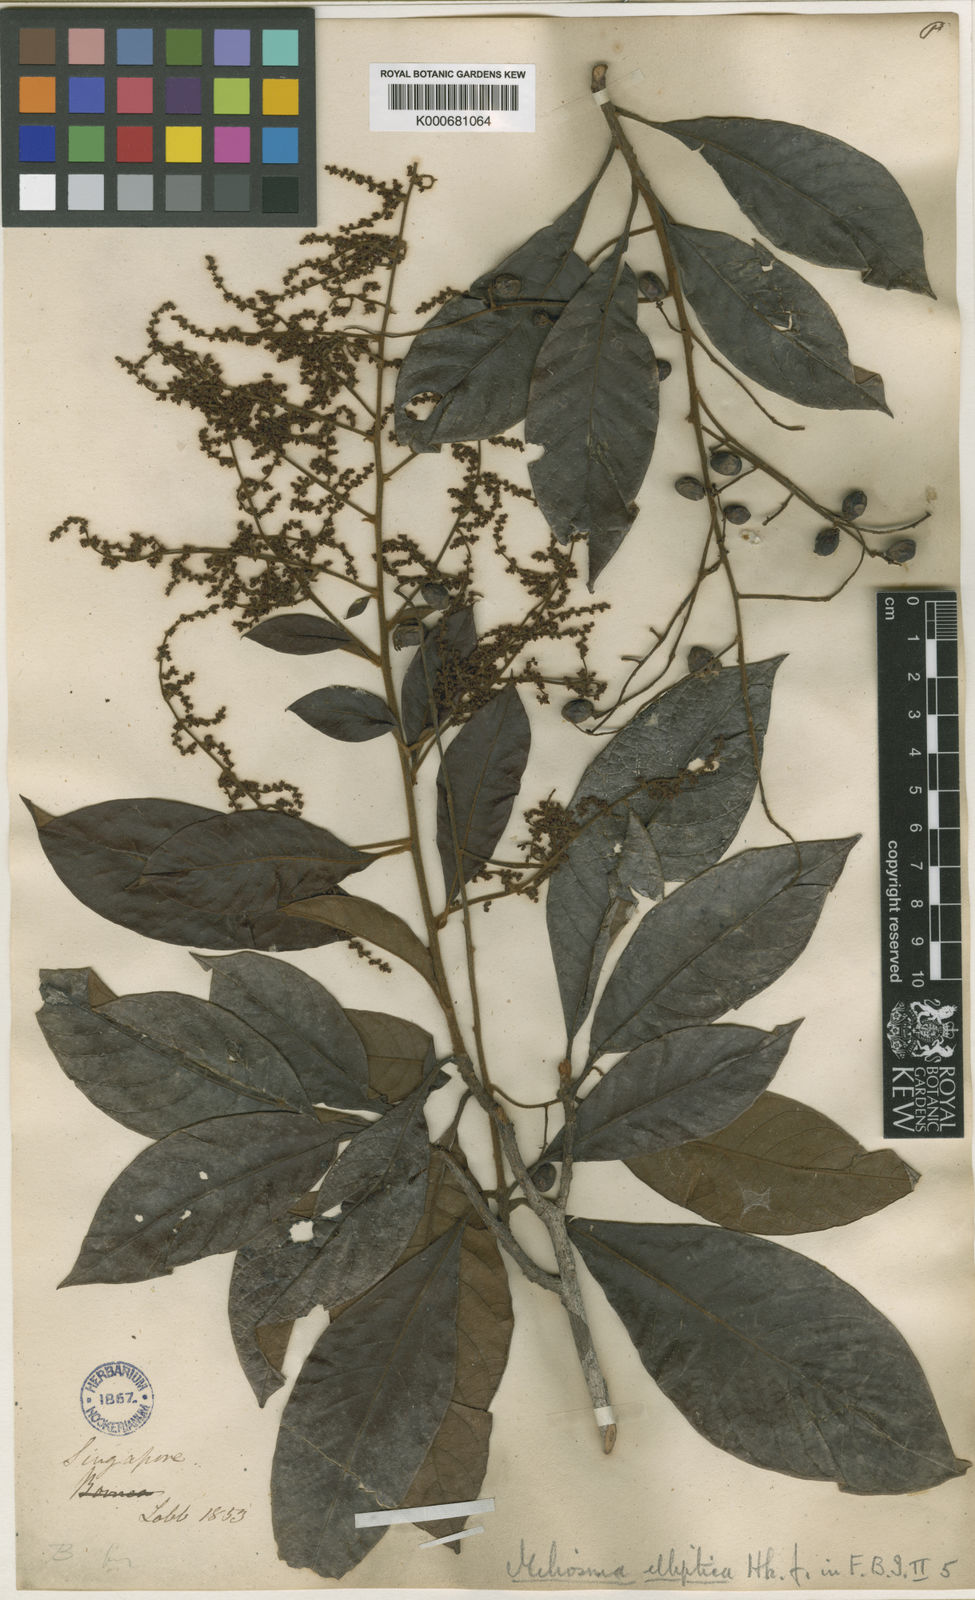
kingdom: Plantae
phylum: Tracheophyta
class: Magnoliopsida
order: Proteales
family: Sabiaceae
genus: Meliosma
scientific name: Meliosma simplicifolia
